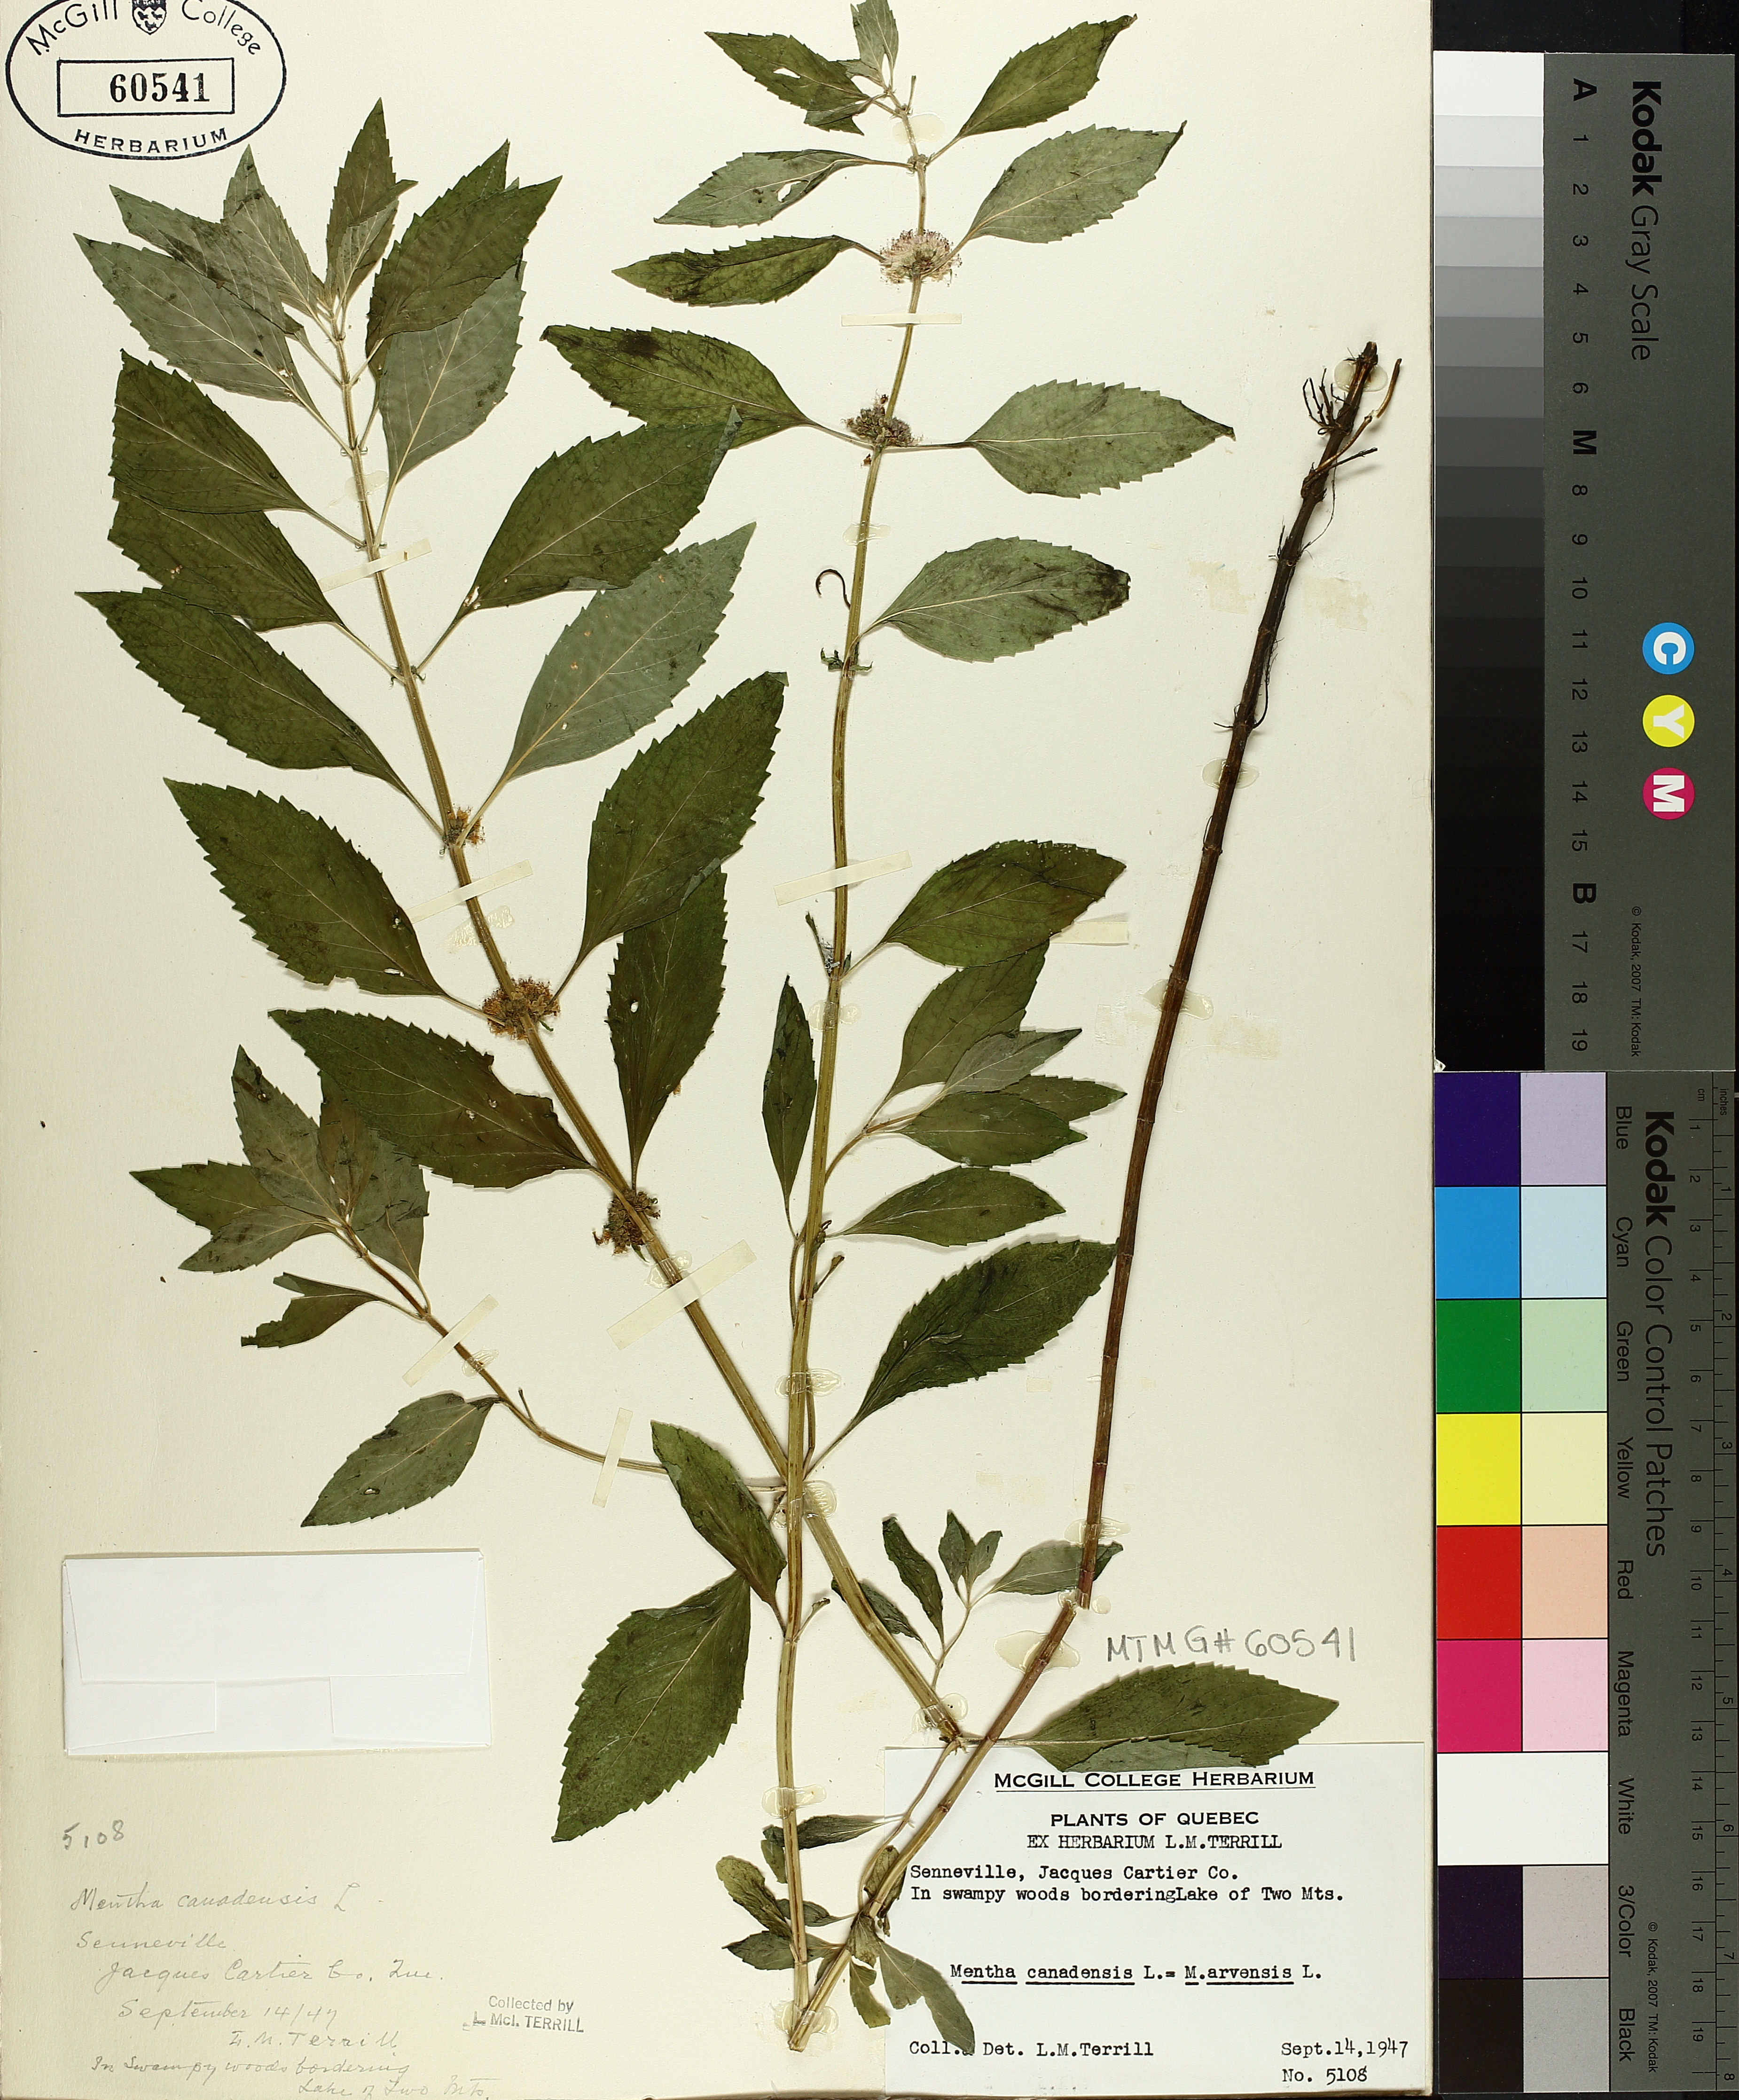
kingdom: Plantae
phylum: Tracheophyta
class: Magnoliopsida
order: Lamiales
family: Lamiaceae
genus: Mentha
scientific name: Mentha arvensis
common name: Corn mint
